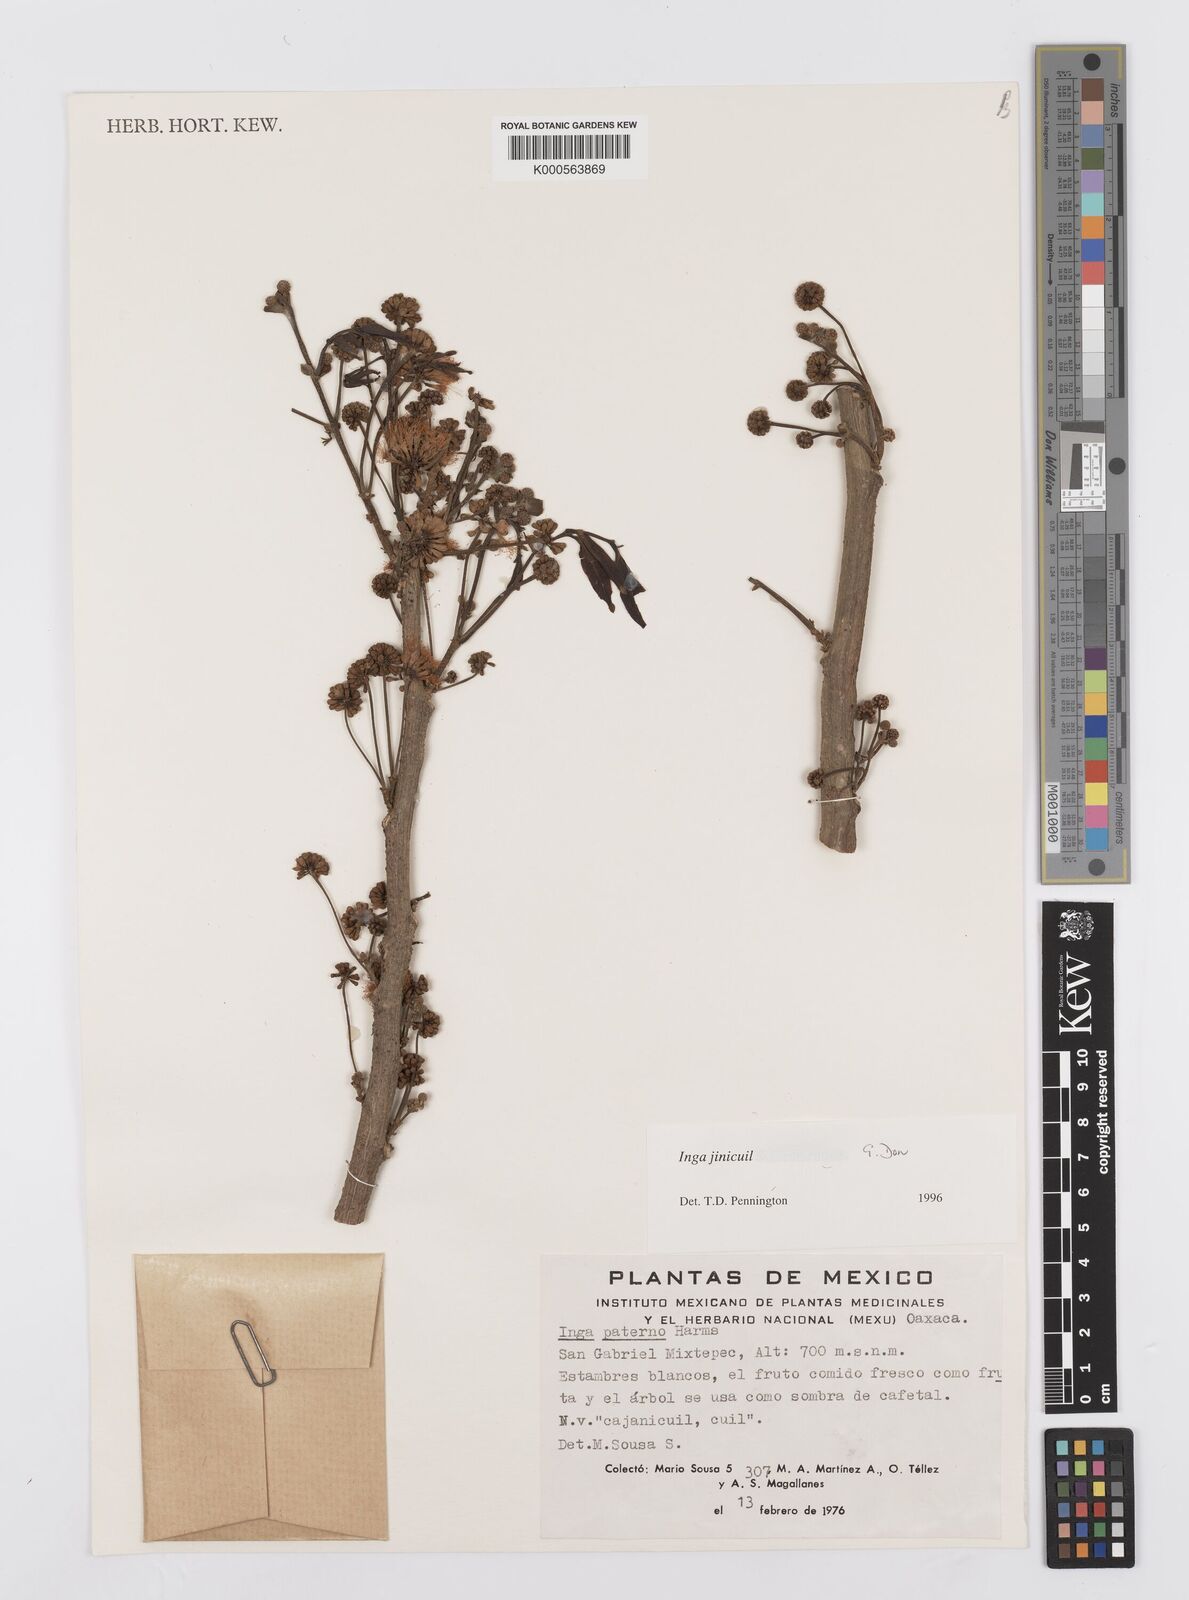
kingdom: Plantae
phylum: Tracheophyta
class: Magnoliopsida
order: Fabales
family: Fabaceae
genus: Inga
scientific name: Inga inicuil
